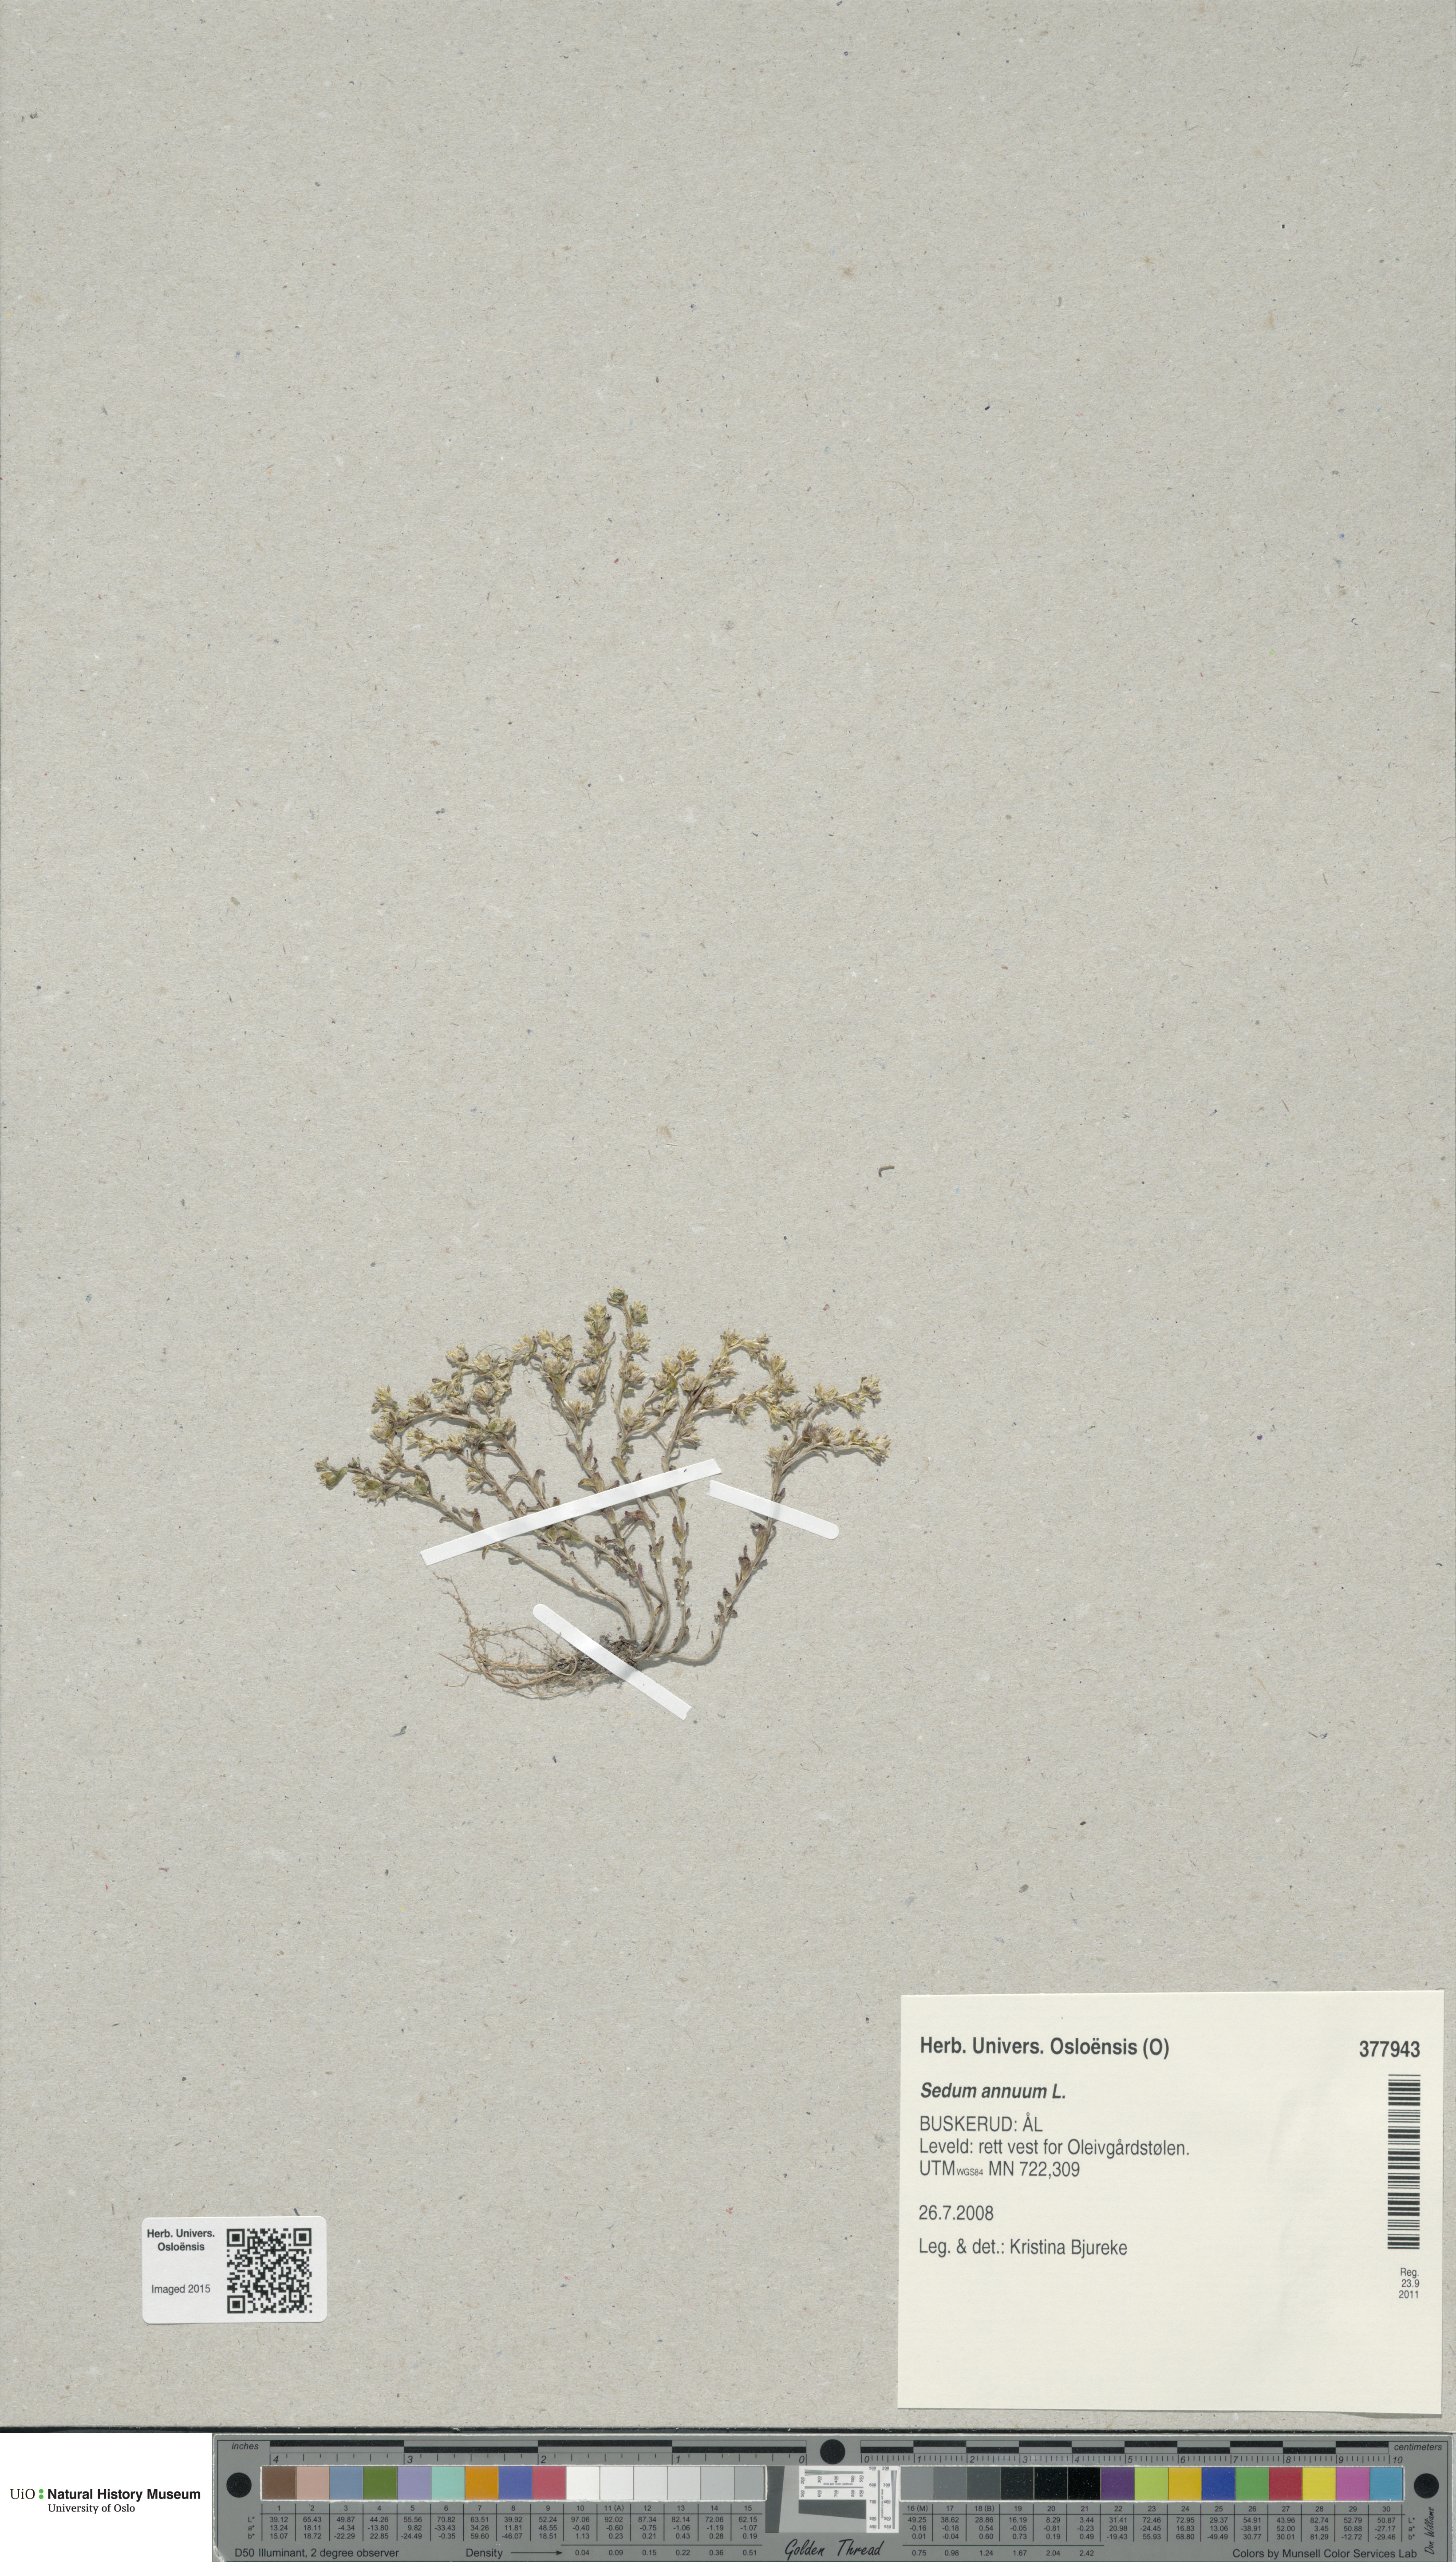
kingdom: Plantae
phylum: Tracheophyta
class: Magnoliopsida
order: Saxifragales
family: Crassulaceae
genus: Sedum
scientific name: Sedum annuum
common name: Annual stonecrop
